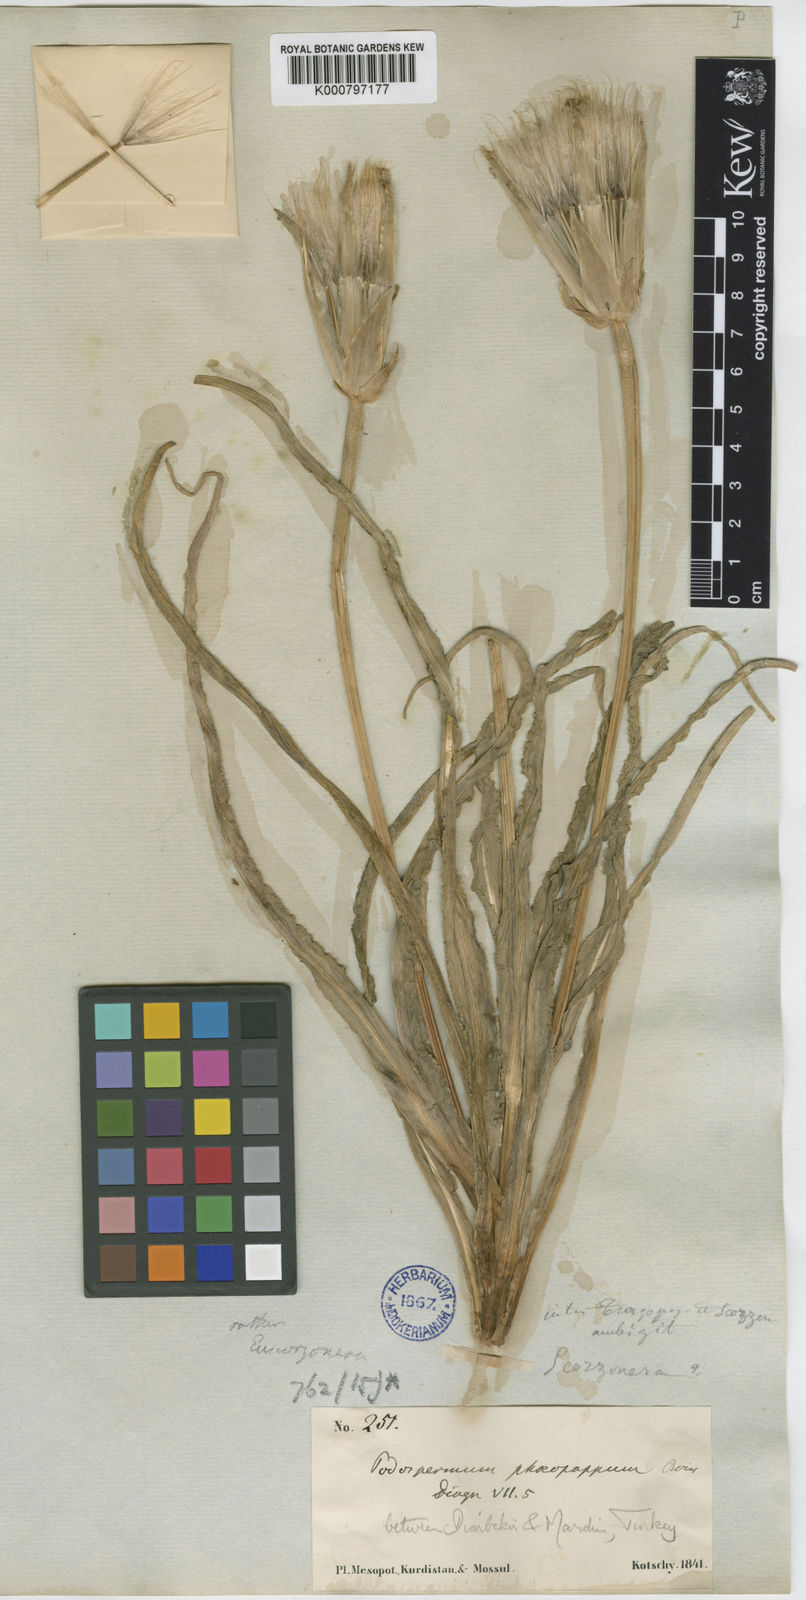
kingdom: Plantae
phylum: Tracheophyta
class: Magnoliopsida
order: Asterales
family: Asteraceae
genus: Pseudopodospermum
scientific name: Pseudopodospermum phaeopappum
